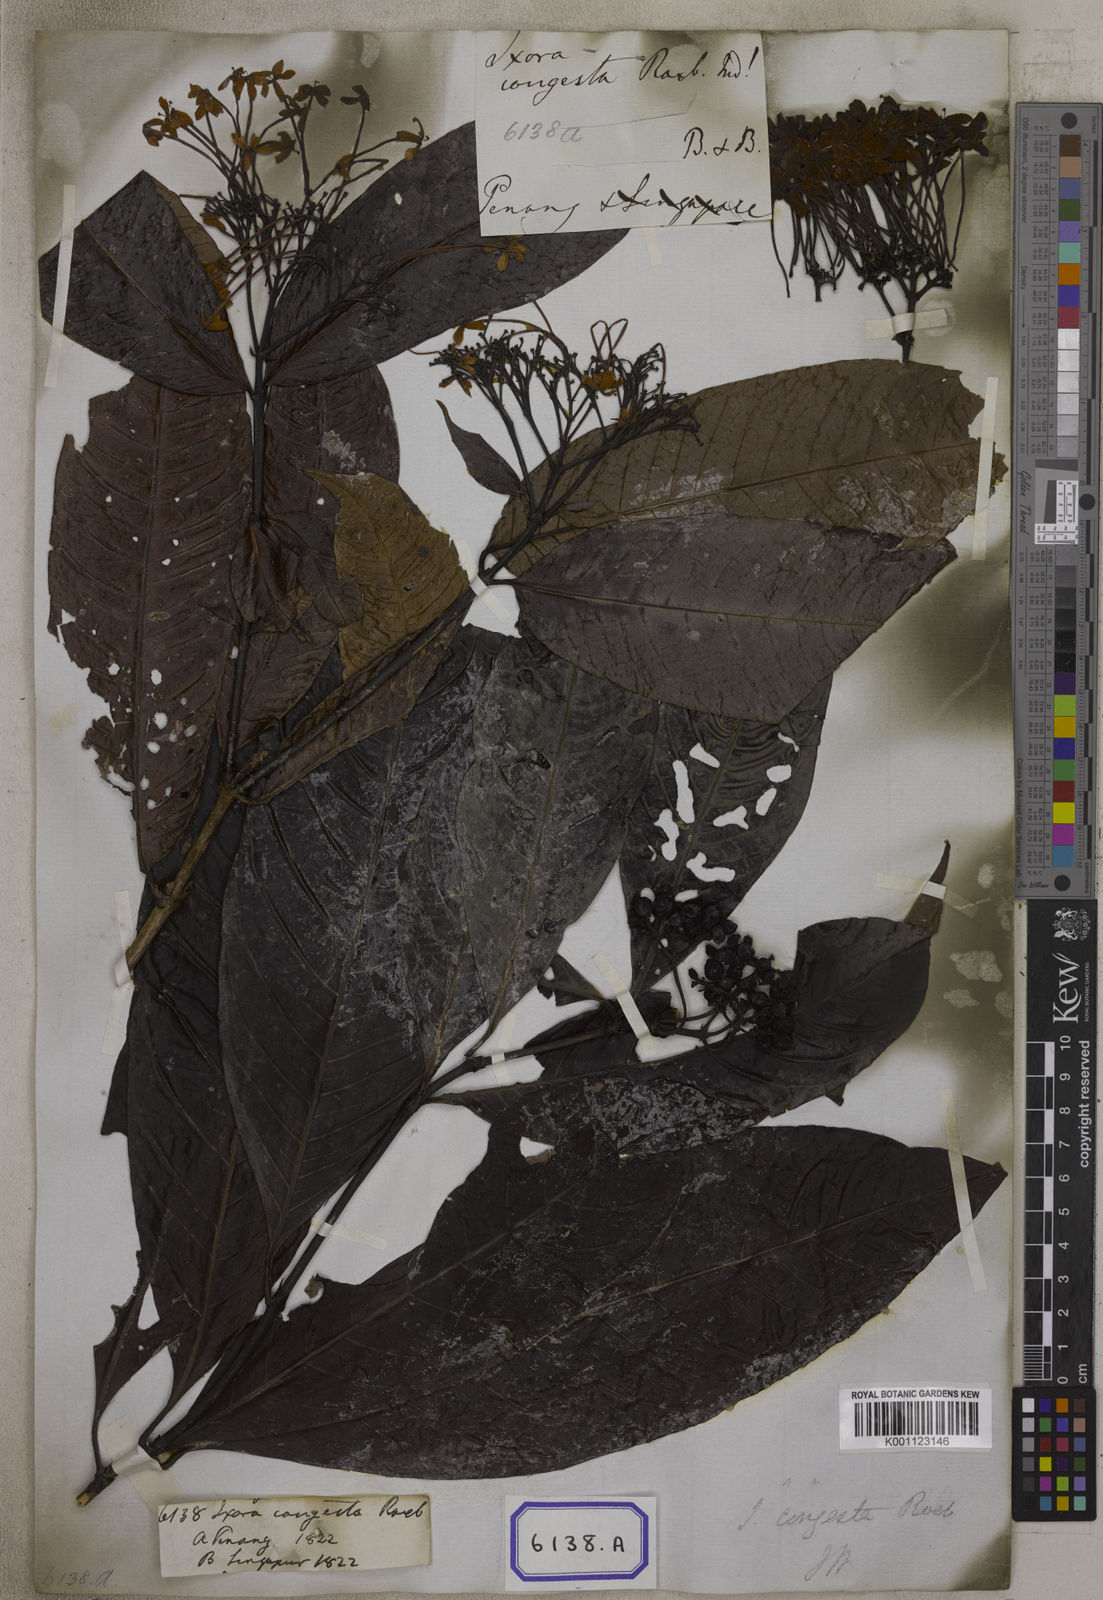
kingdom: Plantae
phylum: Tracheophyta
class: Magnoliopsida
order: Gentianales
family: Rubiaceae
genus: Ixora
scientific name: Ixora congesta
